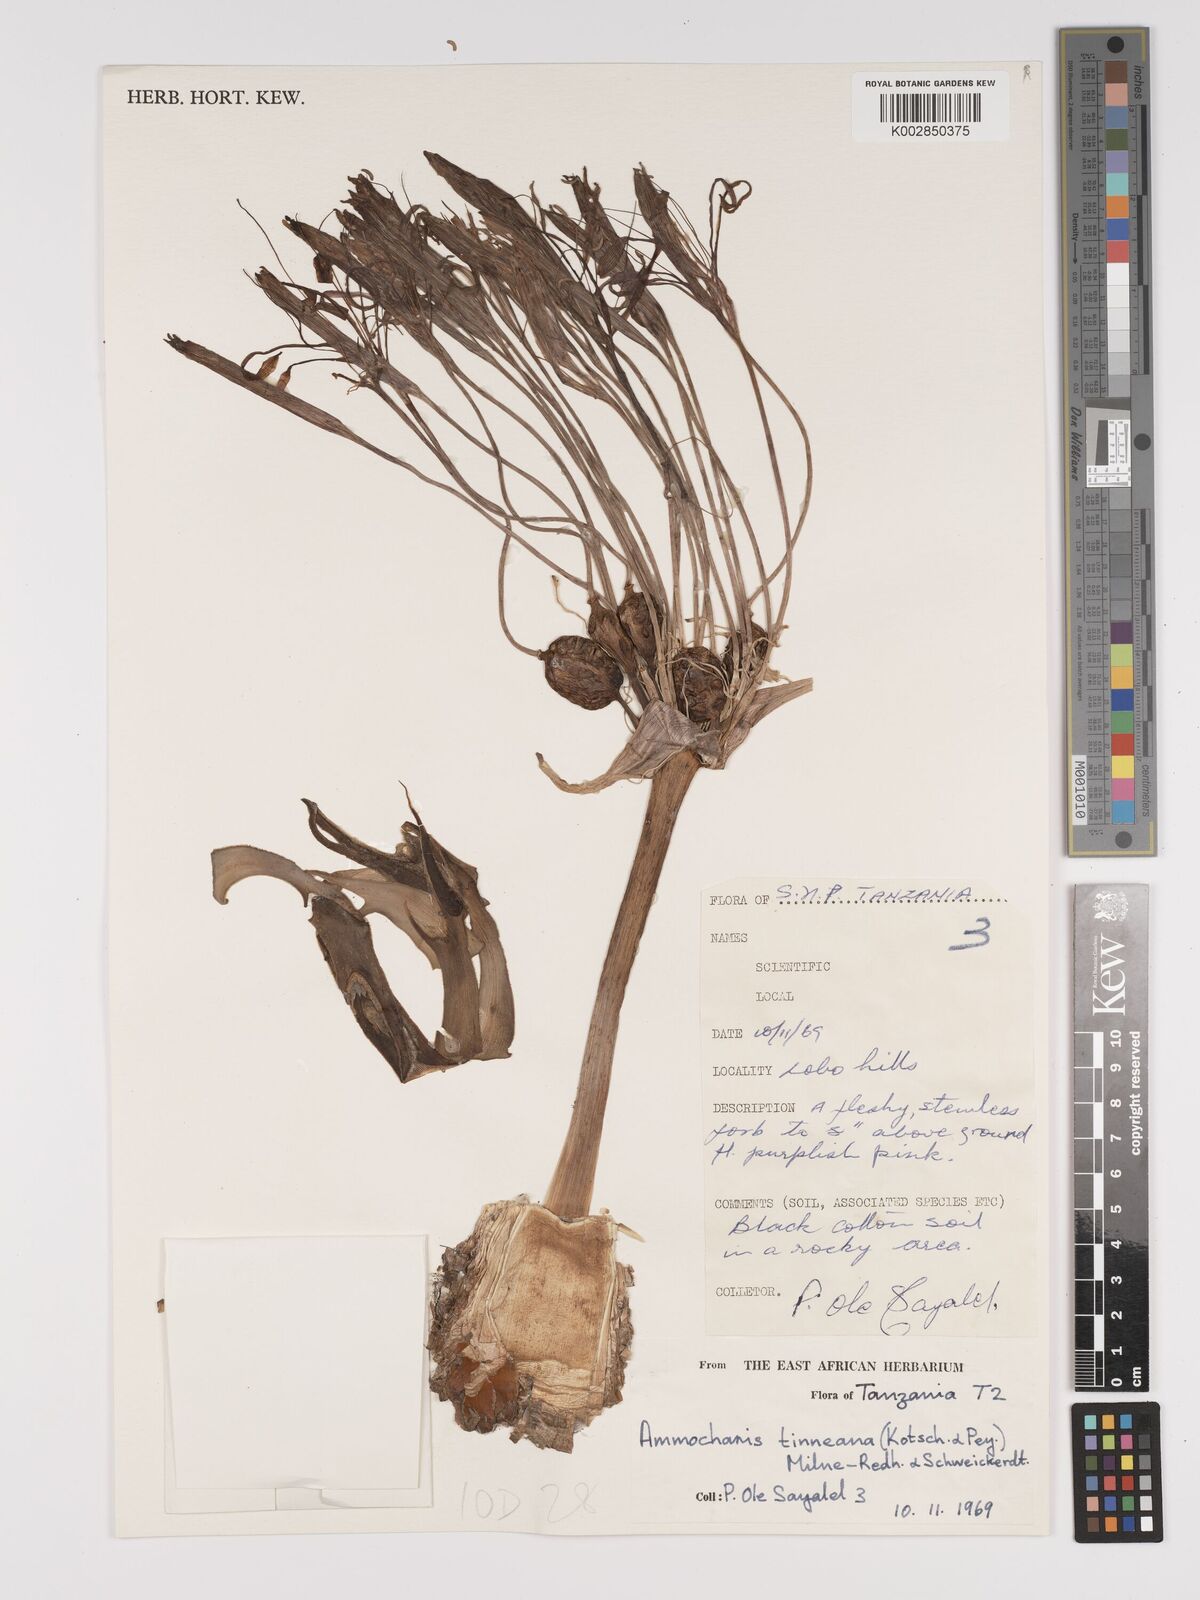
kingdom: Plantae
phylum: Tracheophyta
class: Liliopsida
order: Asparagales
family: Amaryllidaceae
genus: Ammocharis
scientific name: Ammocharis tinneana
